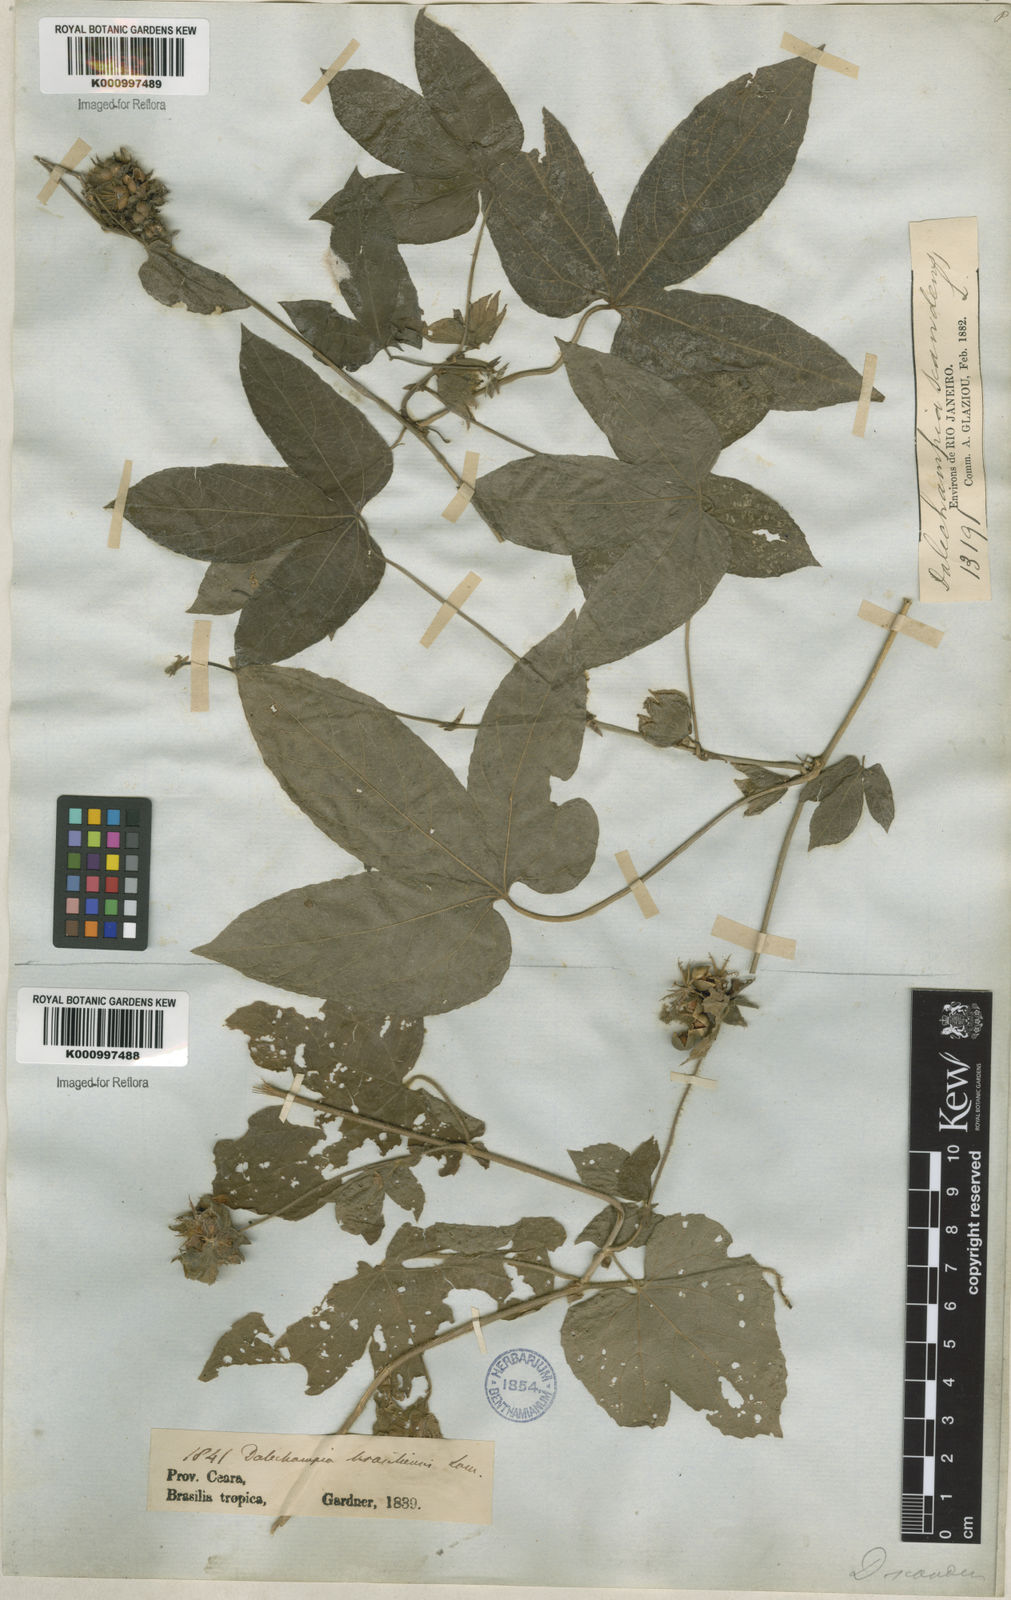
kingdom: Plantae
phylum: Tracheophyta
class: Magnoliopsida
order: Malpighiales
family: Euphorbiaceae
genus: Dalechampia
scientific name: Dalechampia brasiliensis
